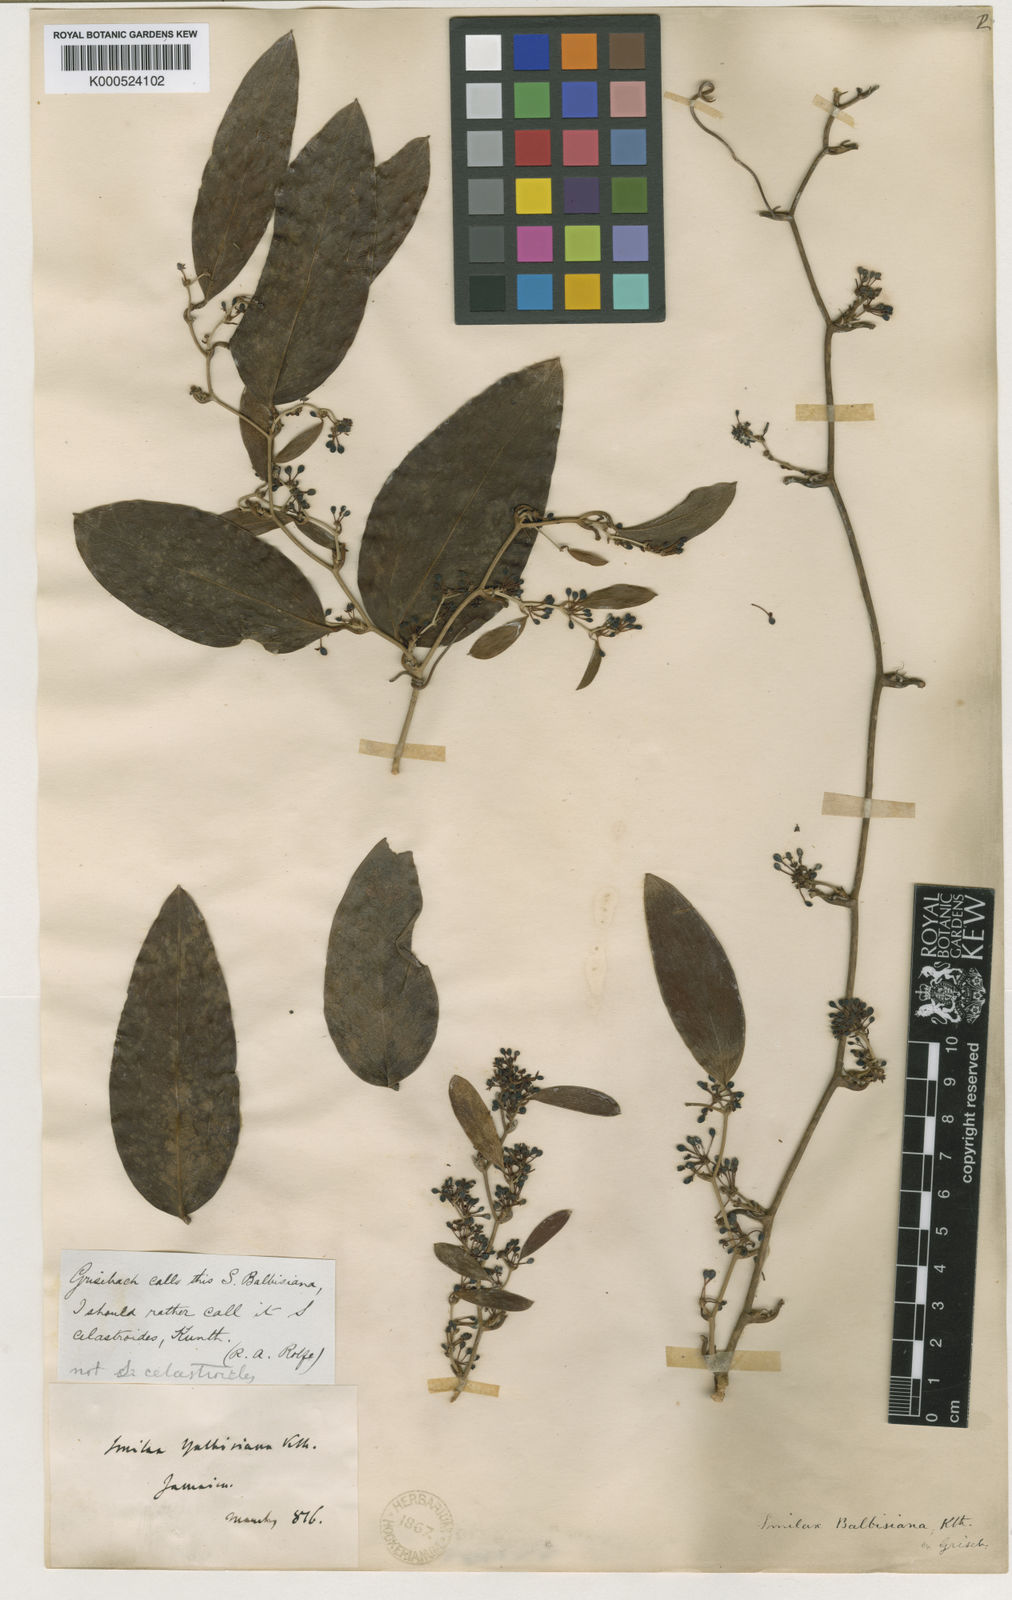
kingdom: Plantae
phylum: Tracheophyta
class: Liliopsida
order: Liliales
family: Smilacaceae
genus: Smilax
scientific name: Smilax domingensis
